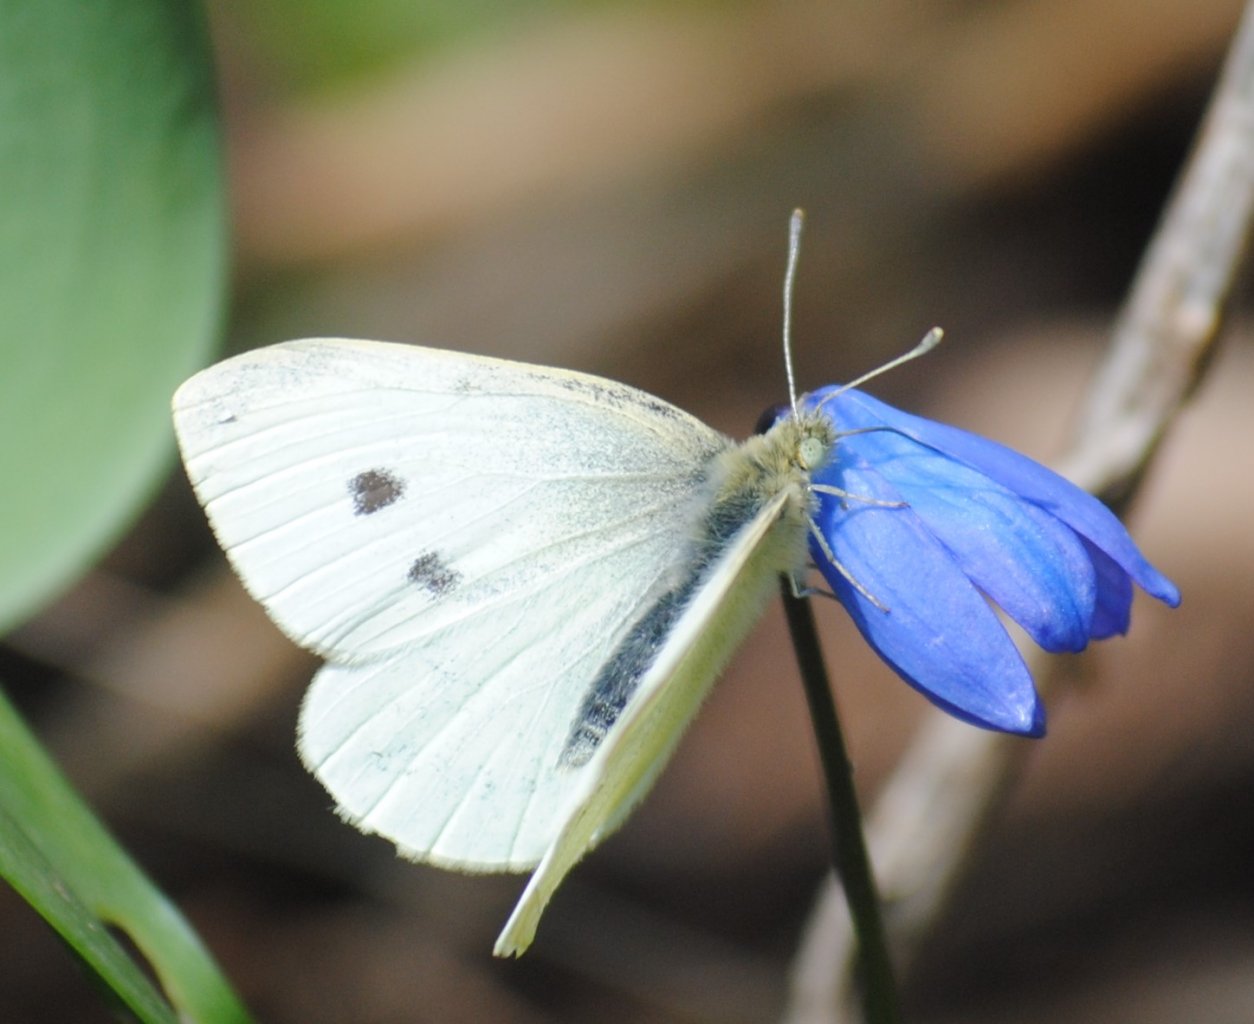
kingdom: Animalia
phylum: Arthropoda
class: Insecta
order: Lepidoptera
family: Pieridae
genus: Pieris
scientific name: Pieris rapae
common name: Cabbage White
